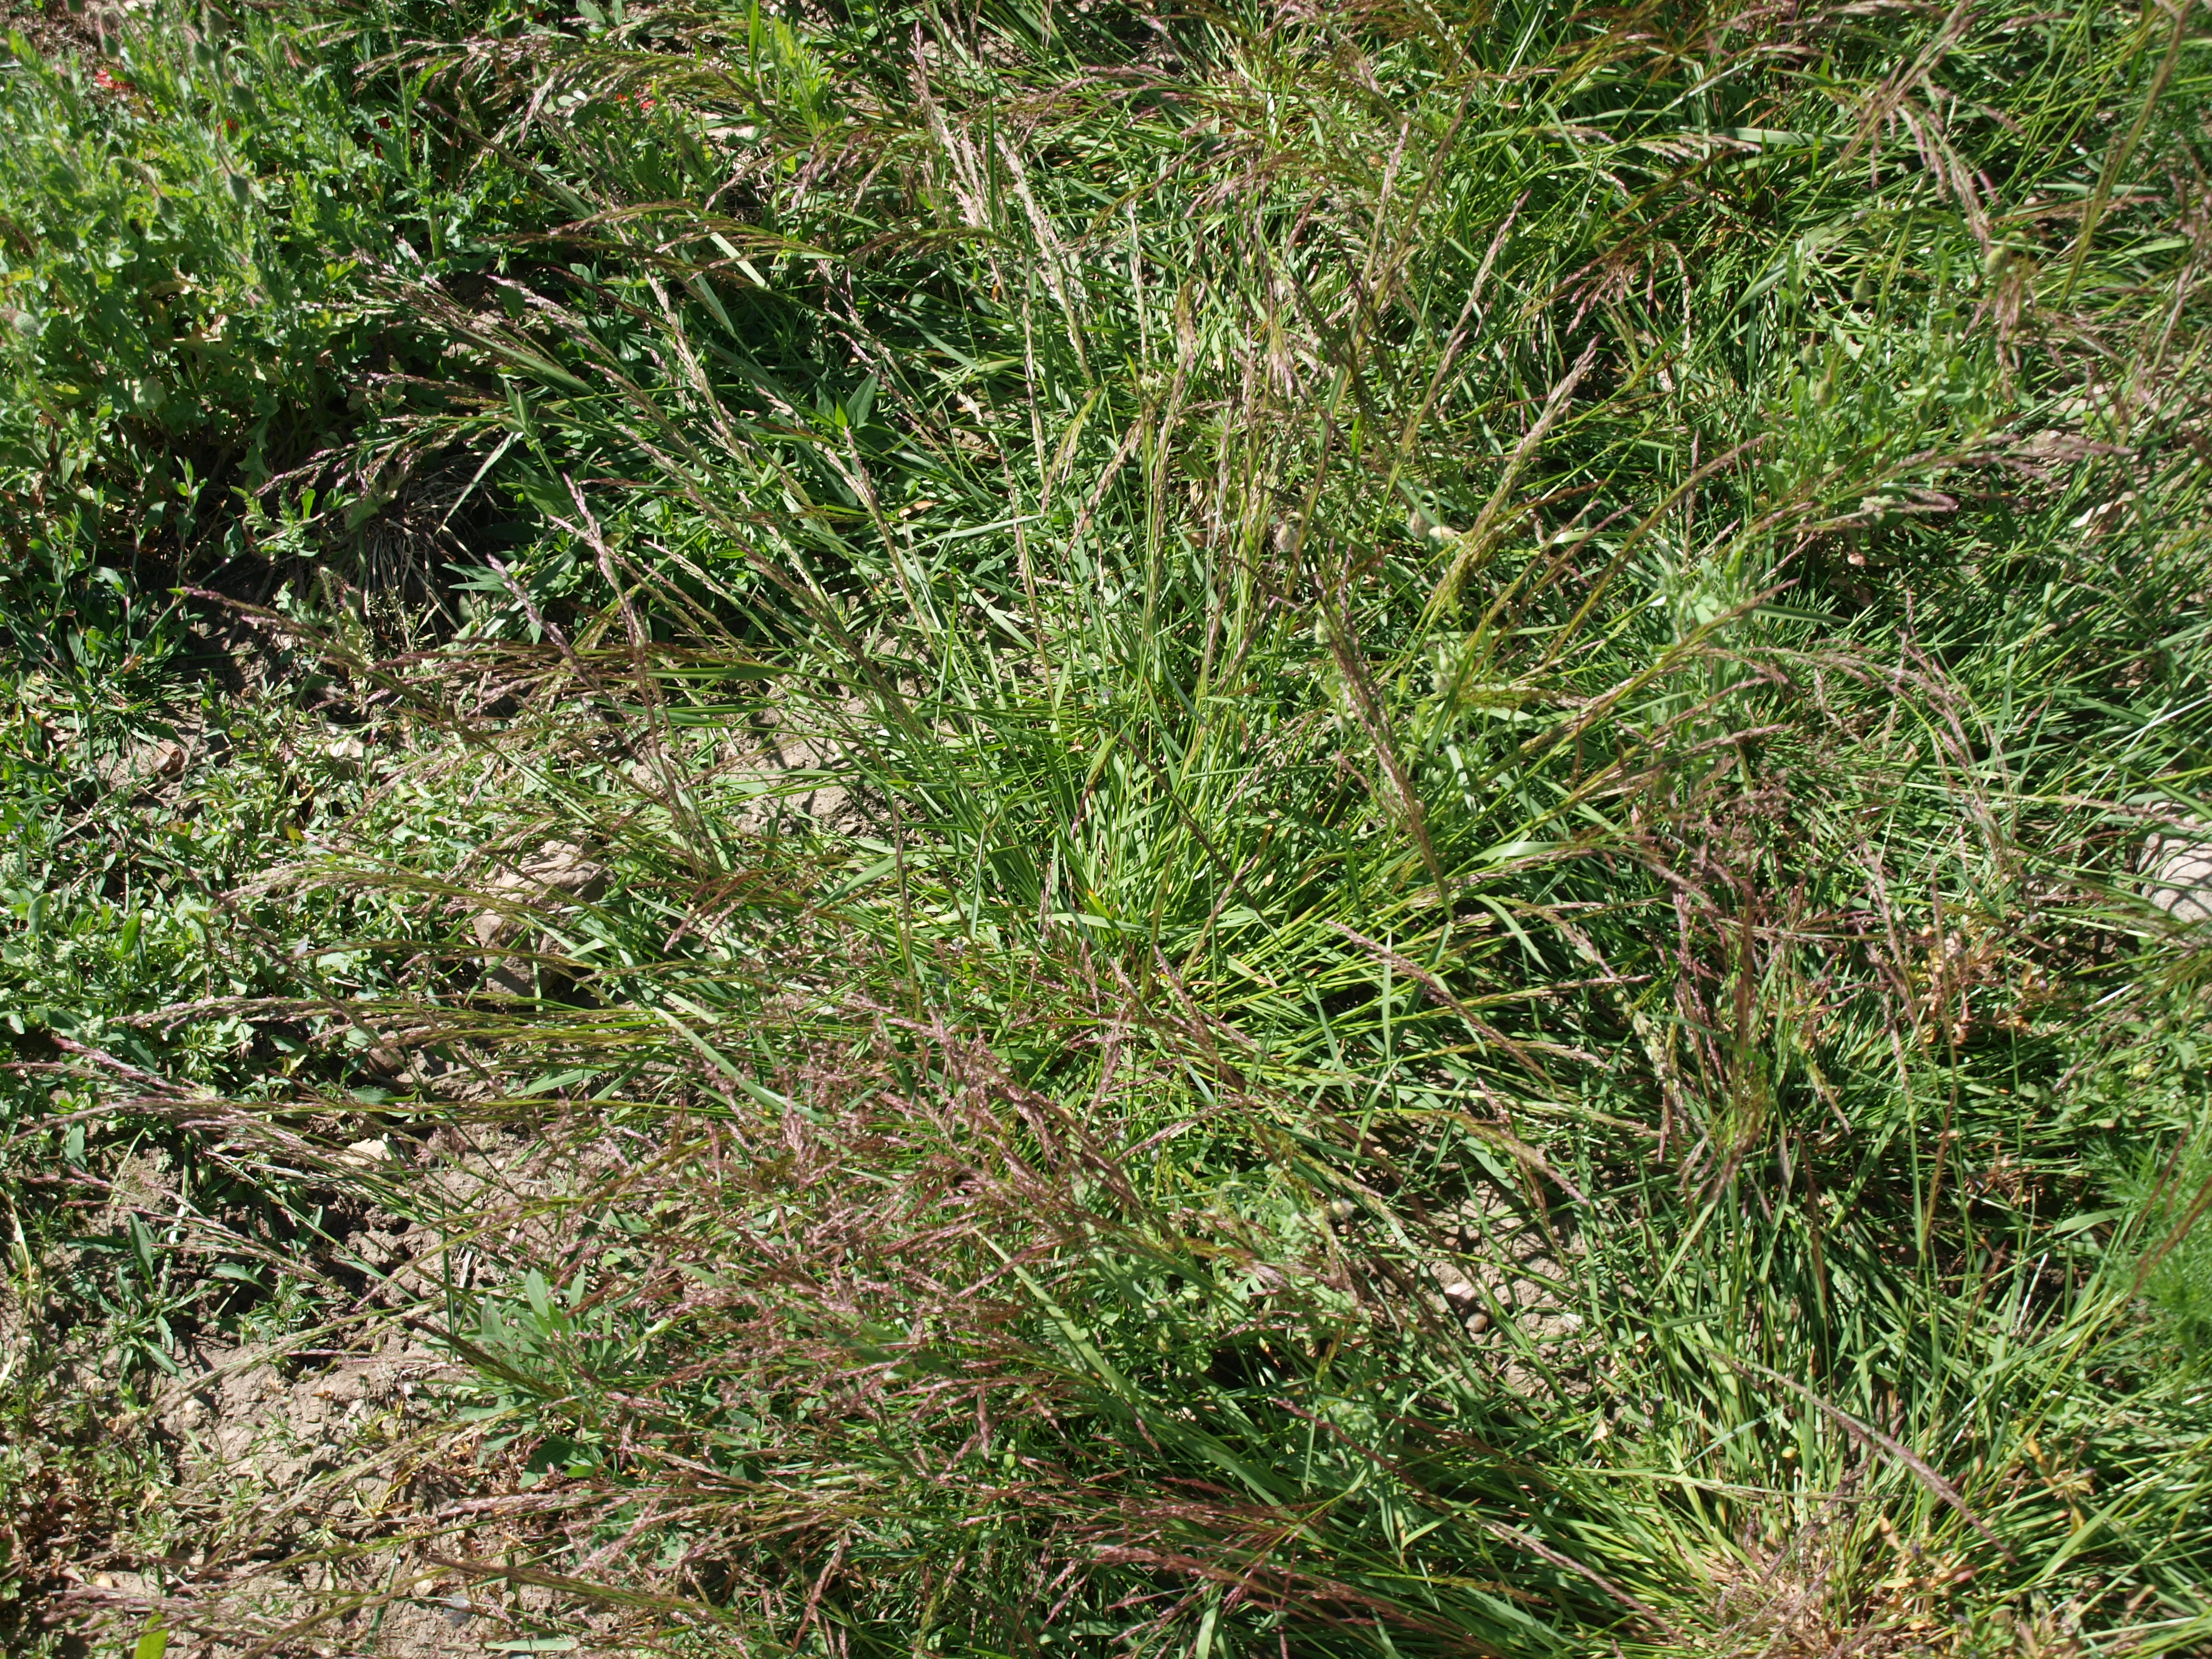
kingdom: Plantae
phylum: Tracheophyta
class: Liliopsida
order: Poales
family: Poaceae
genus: Agrostis
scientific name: Agrostis capillaris
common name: Colonial bentgrass
